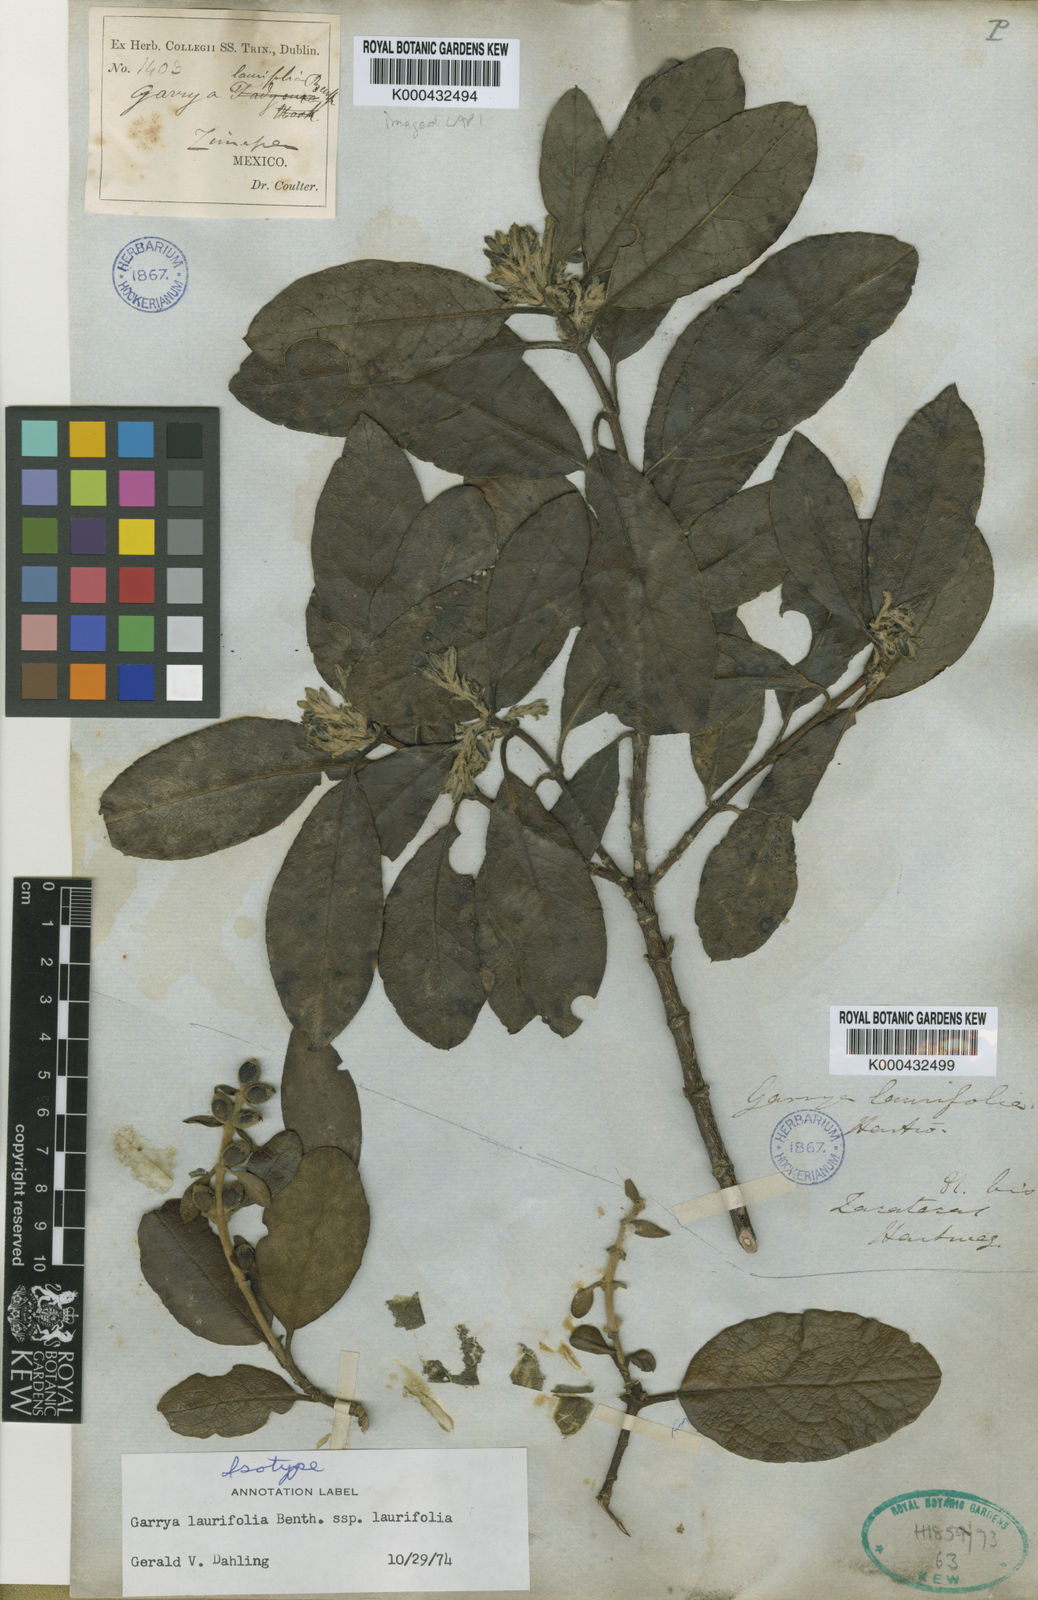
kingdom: Plantae
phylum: Tracheophyta
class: Magnoliopsida
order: Garryales
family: Garryaceae
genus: Garrya
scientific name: Garrya laurifolia
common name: Cuachichic
